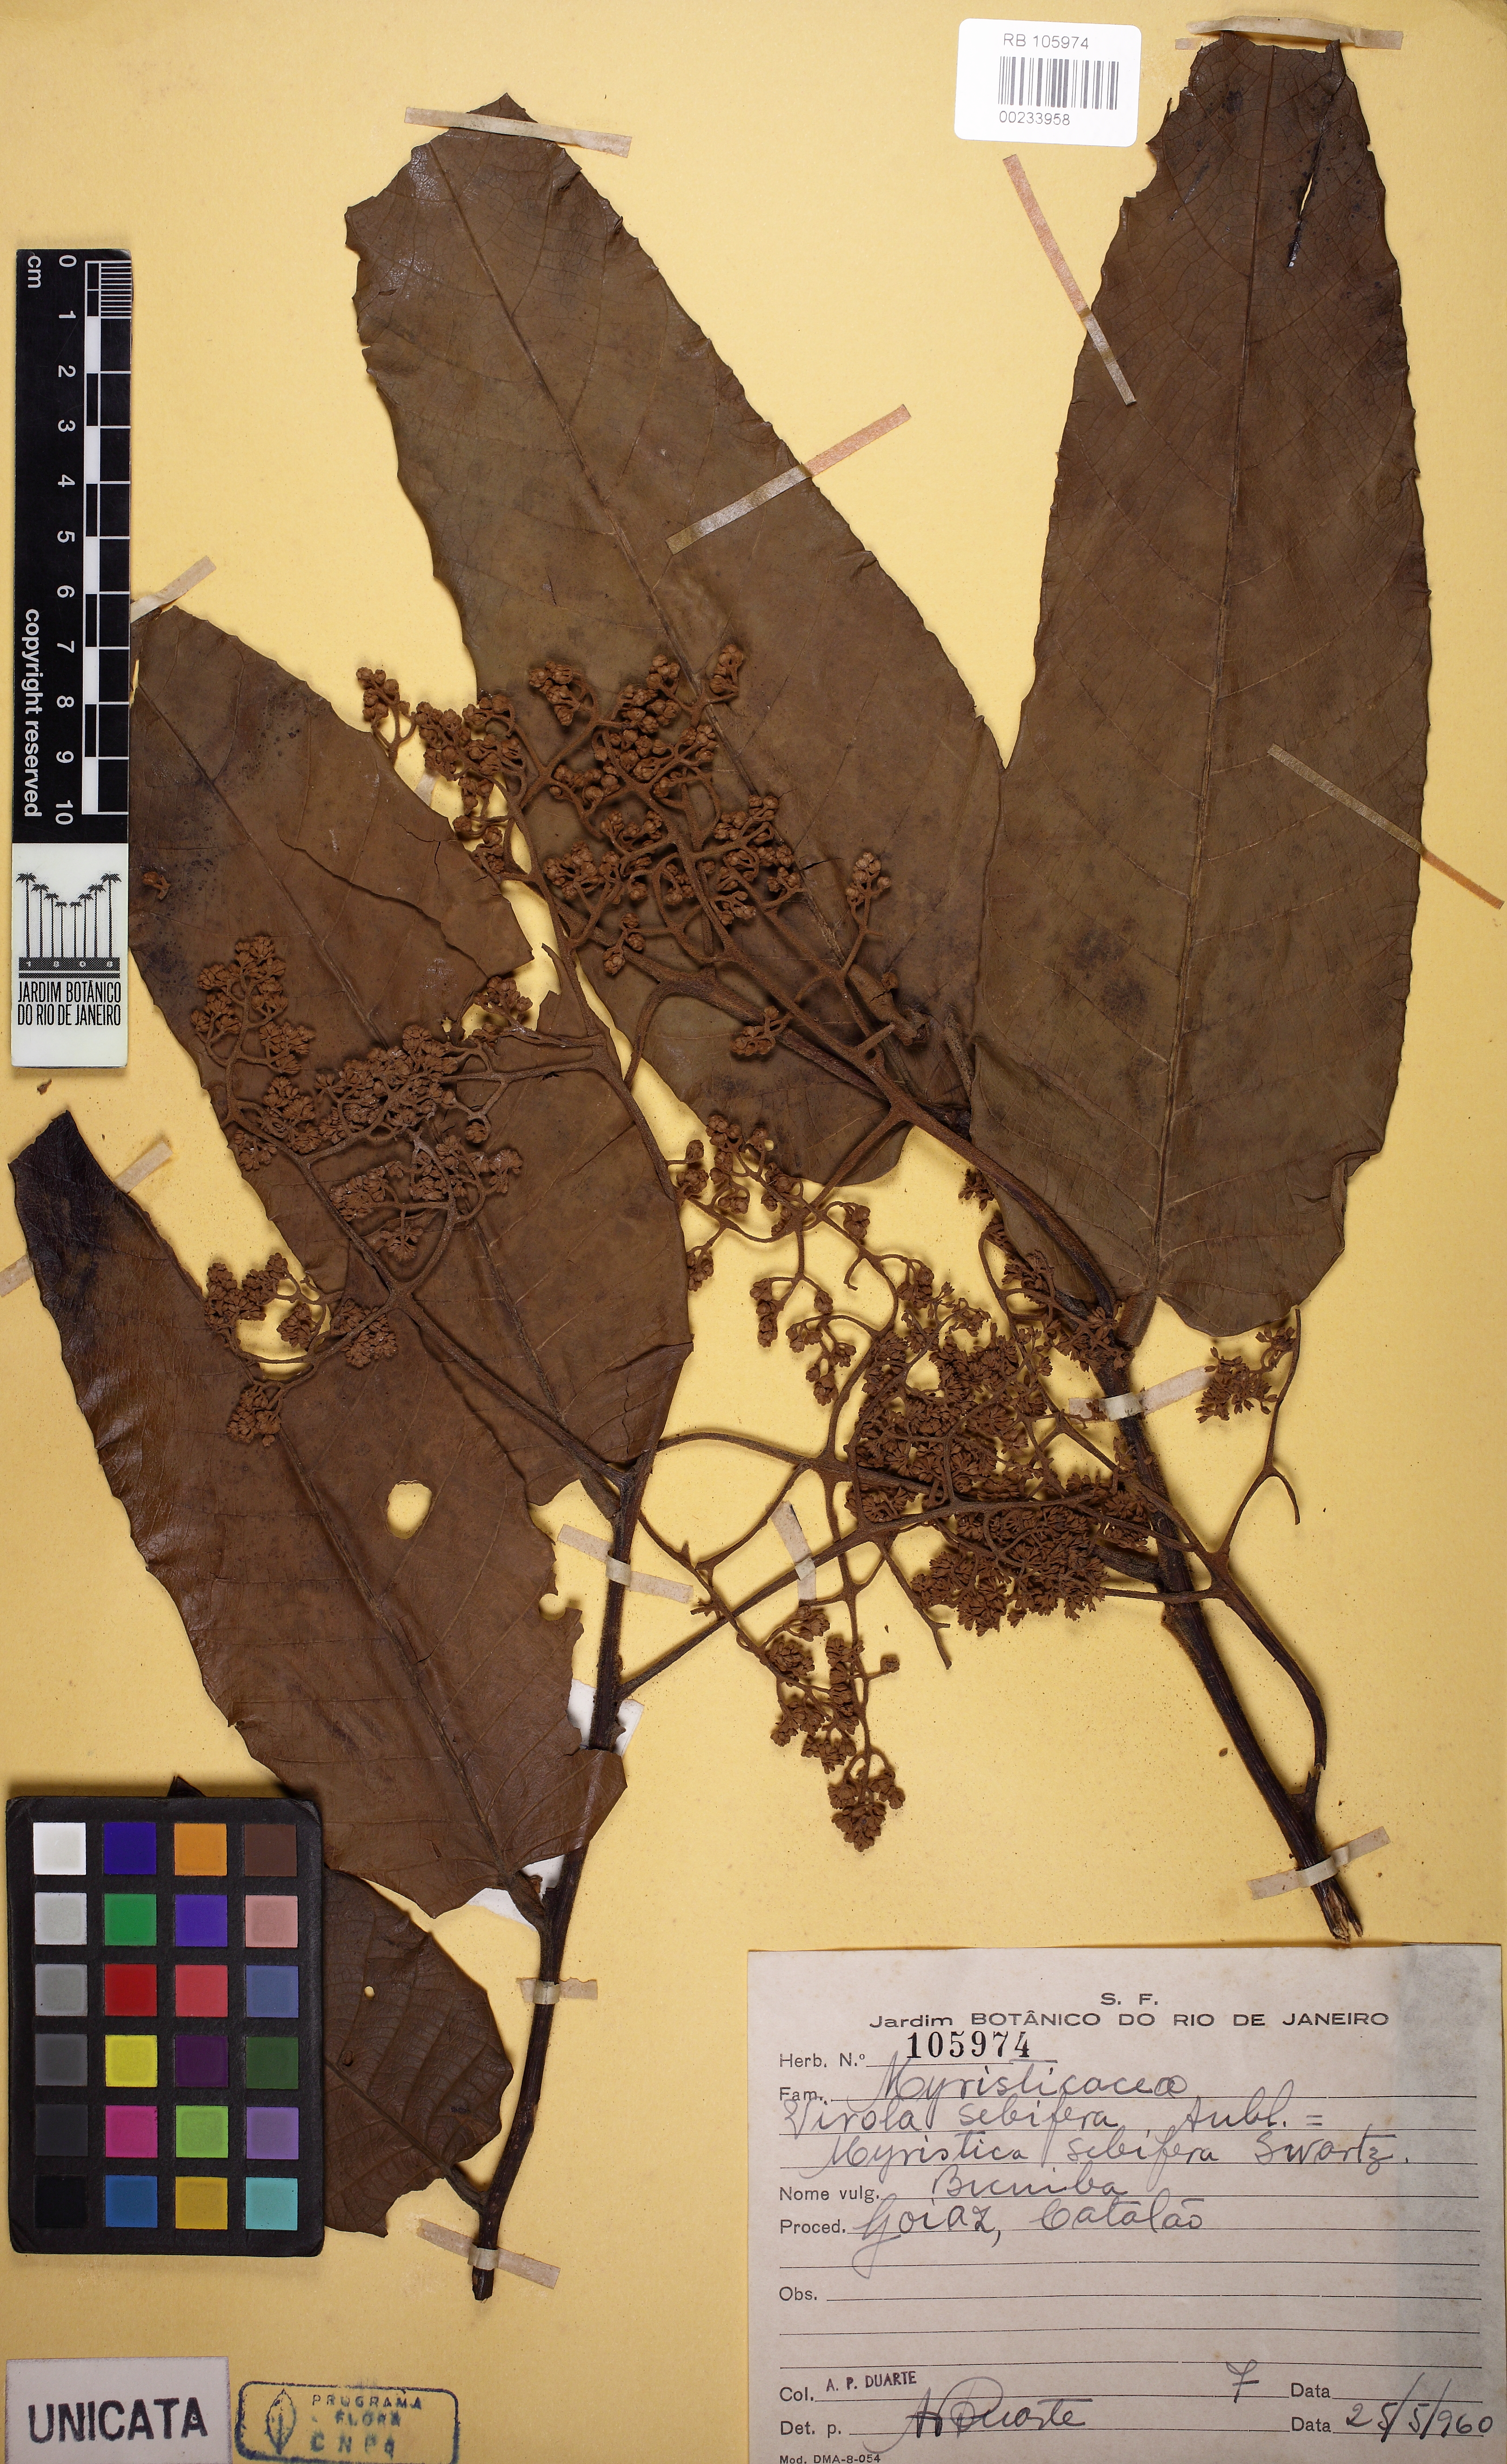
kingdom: Plantae
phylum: Tracheophyta
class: Magnoliopsida
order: Magnoliales
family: Myristicaceae
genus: Virola
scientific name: Virola sebifera
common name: Red ucuuba
